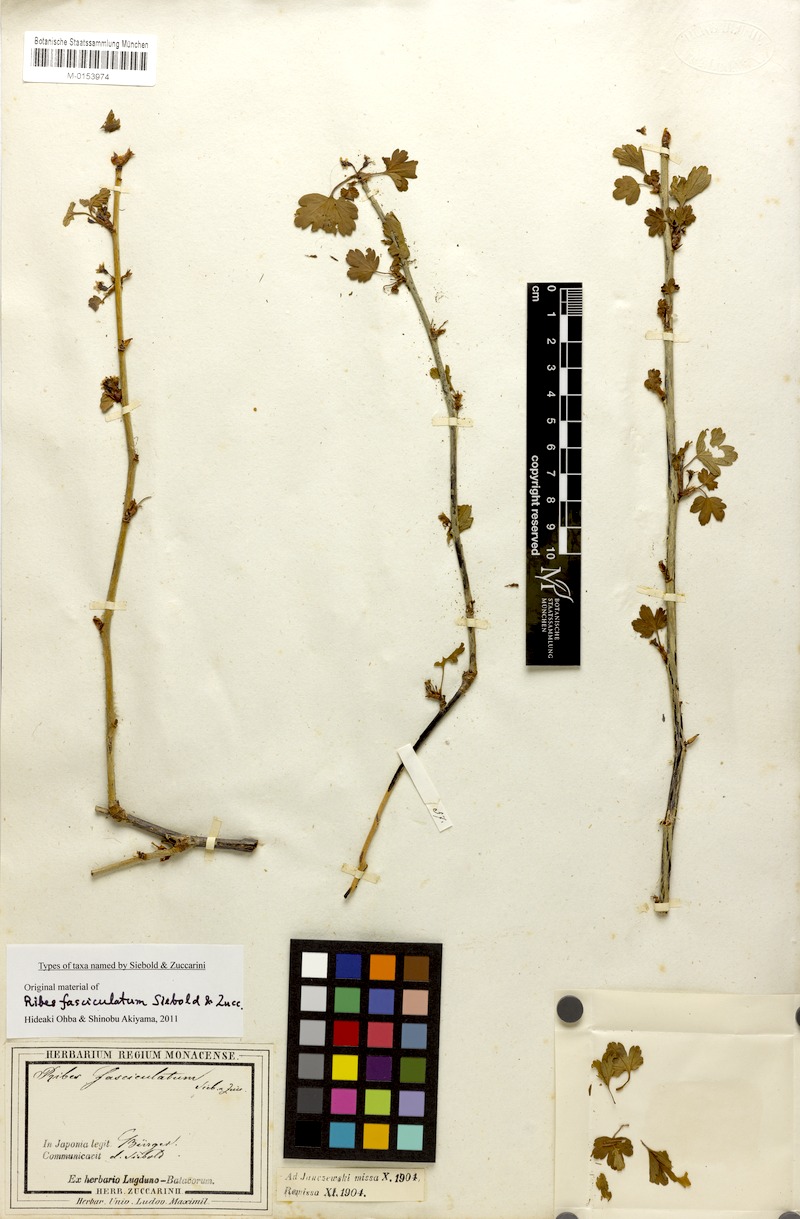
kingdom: Plantae
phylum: Tracheophyta
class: Magnoliopsida
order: Saxifragales
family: Grossulariaceae
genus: Ribes
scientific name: Ribes fasciculatum
